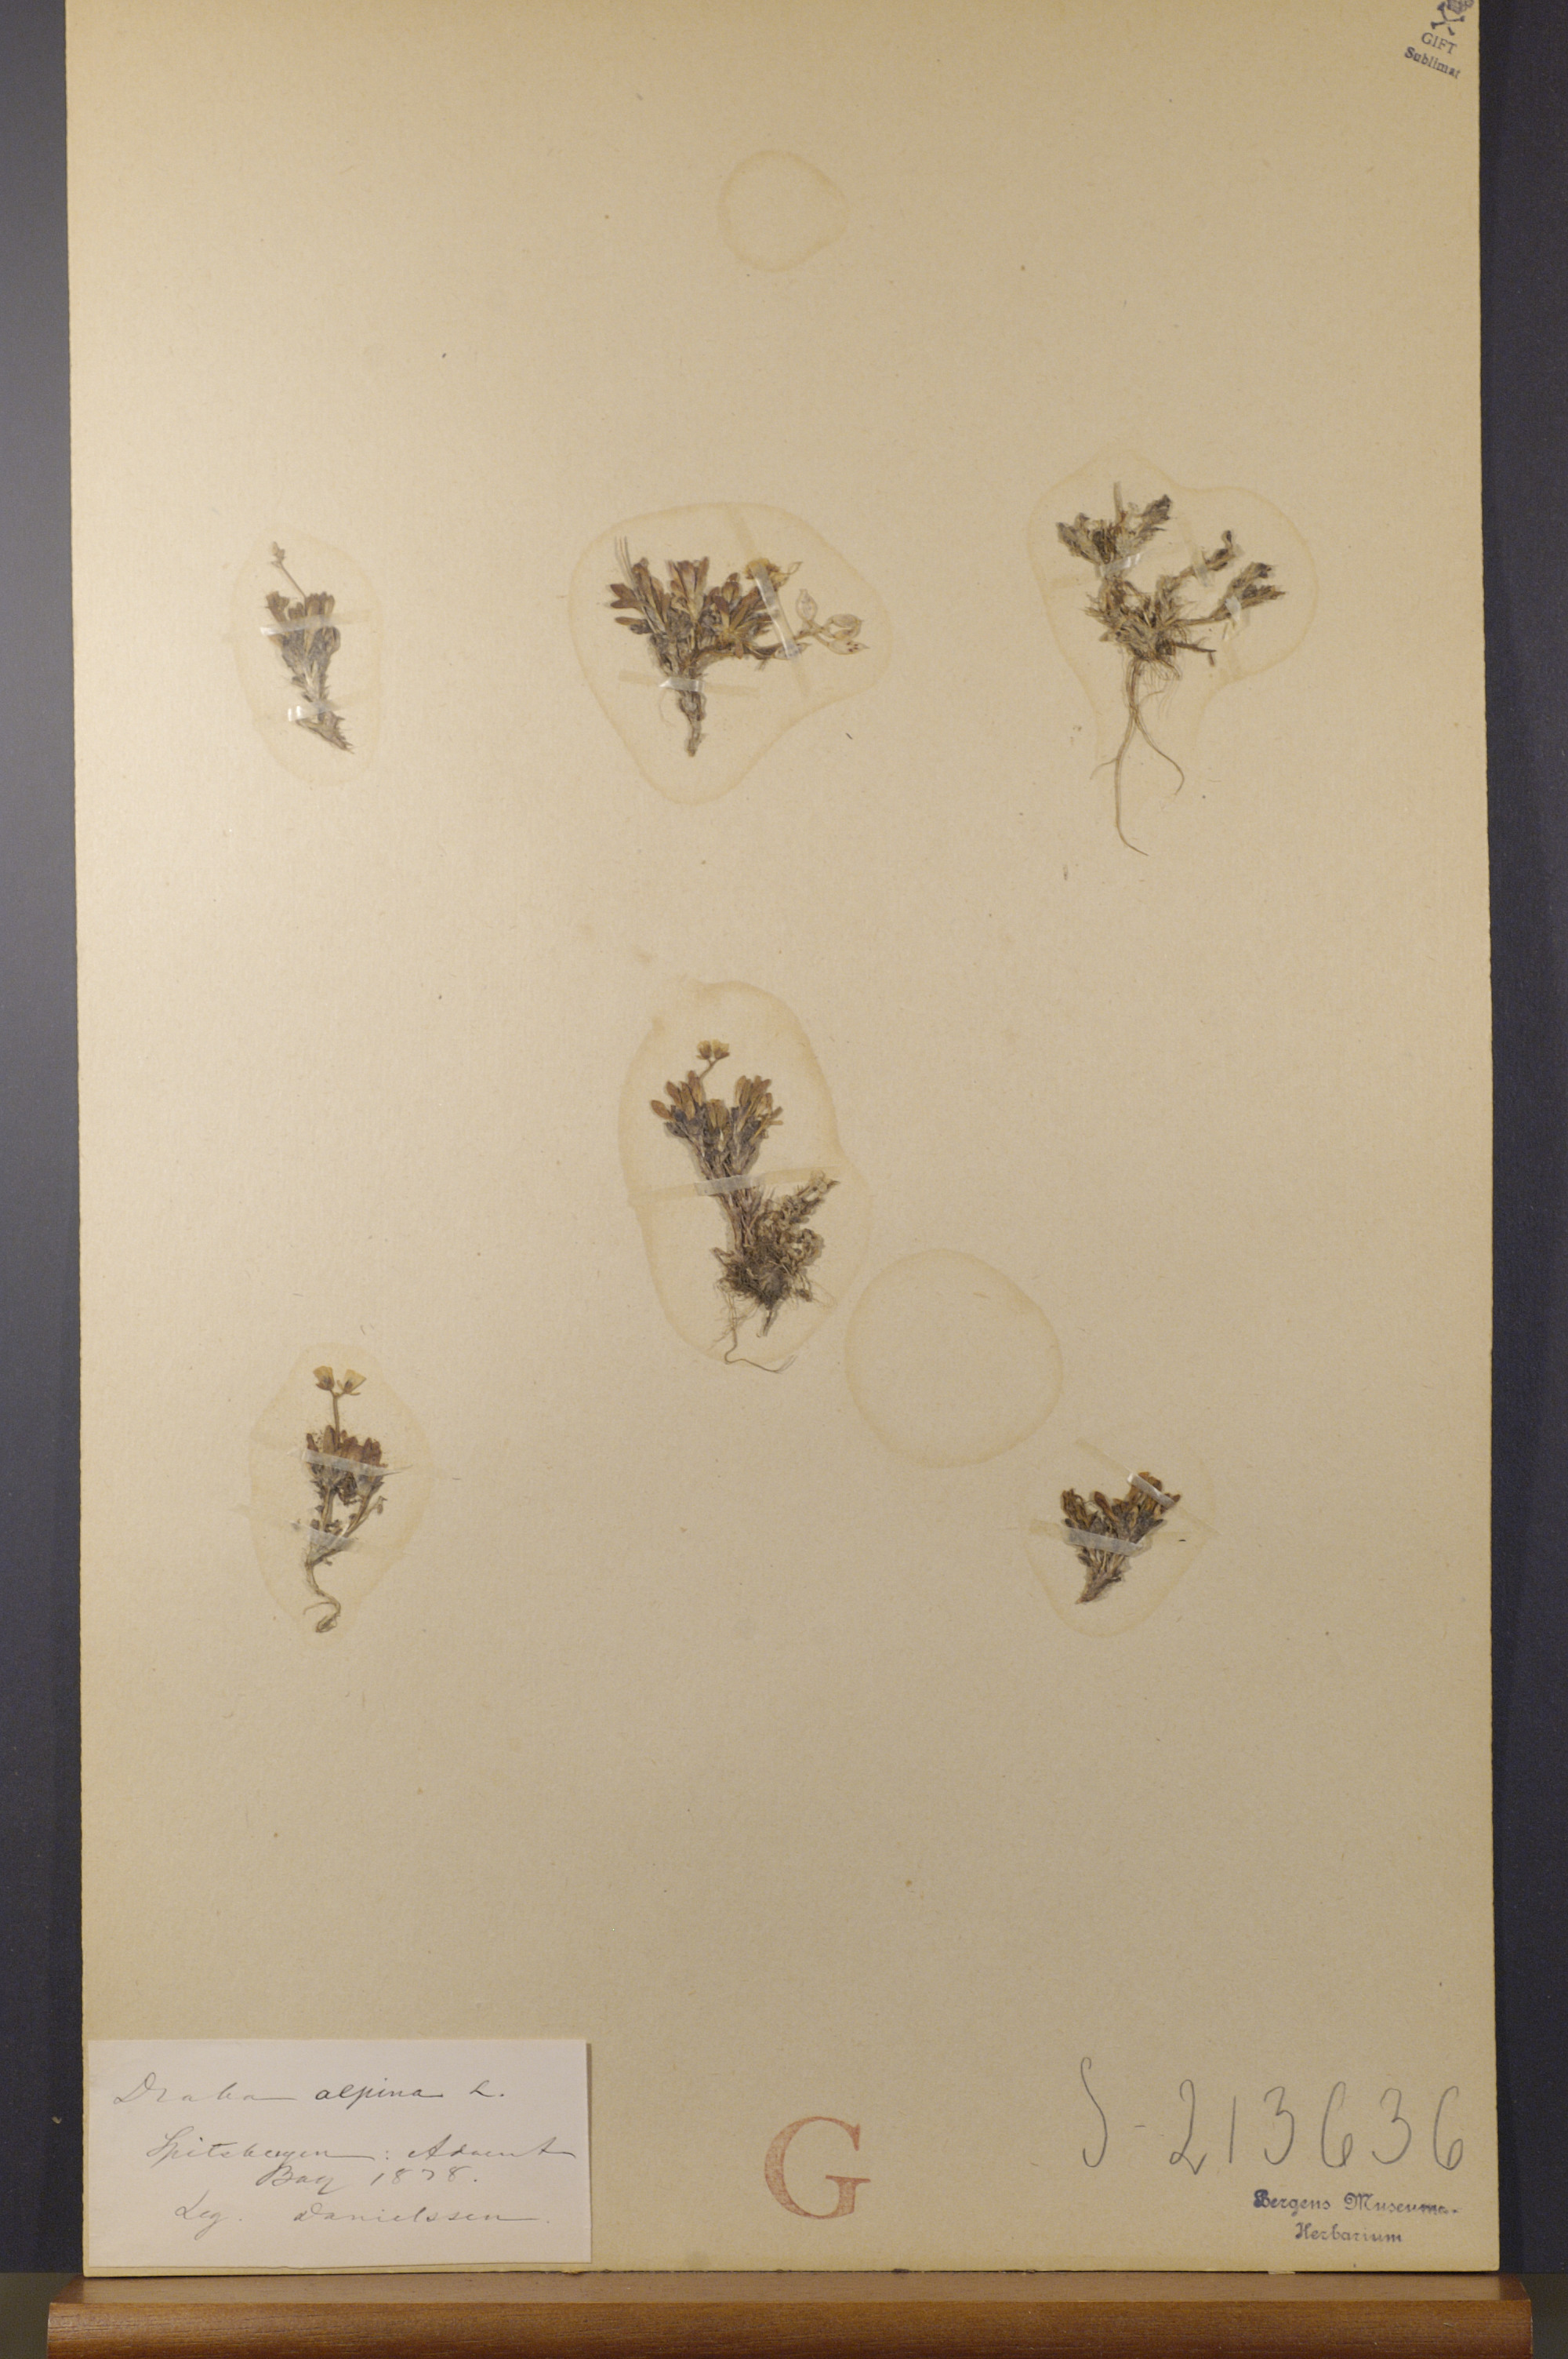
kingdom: Plantae
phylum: Tracheophyta
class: Magnoliopsida
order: Brassicales
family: Brassicaceae
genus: Draba
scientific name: Draba alpina
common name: Alpine draba
